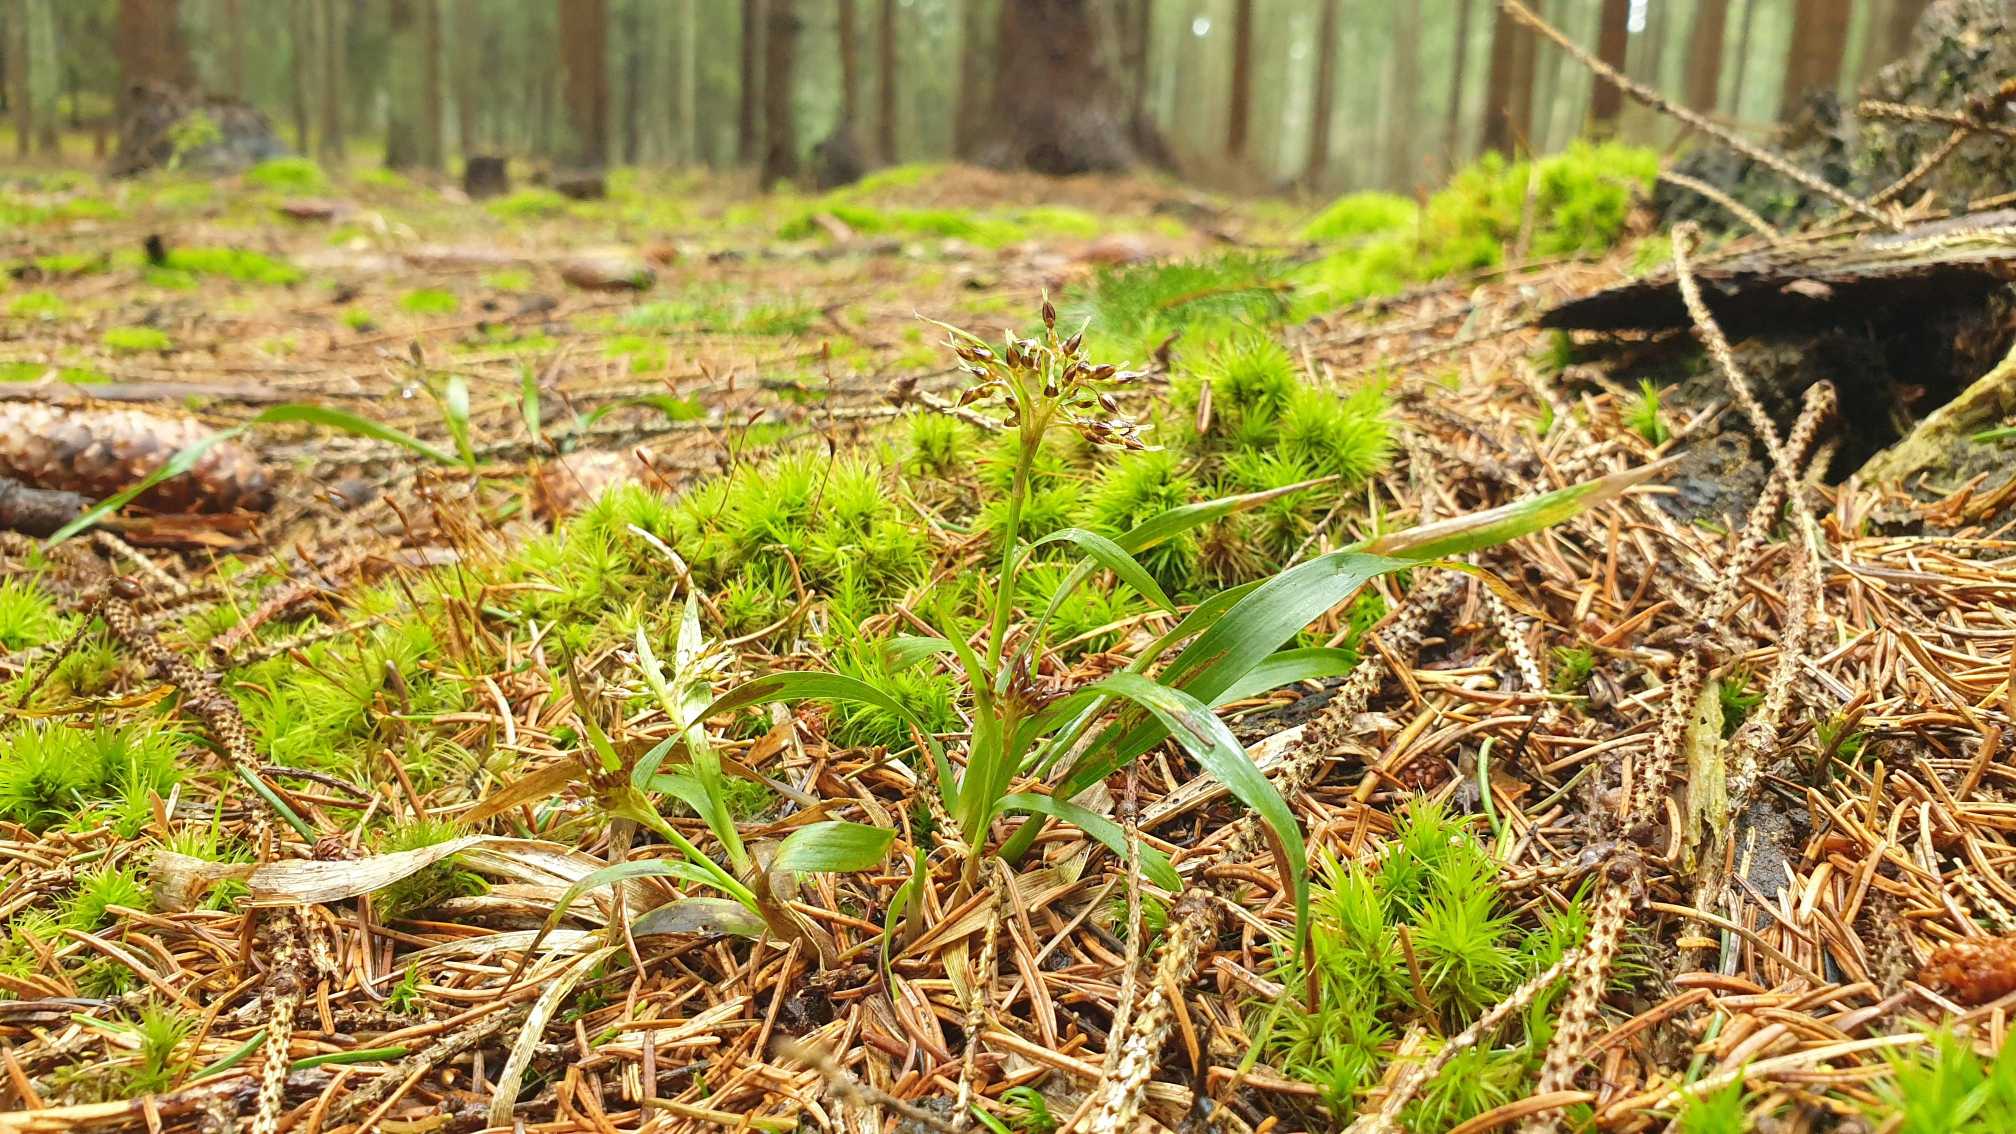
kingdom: Plantae
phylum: Tracheophyta
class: Liliopsida
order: Poales
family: Juncaceae
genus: Luzula
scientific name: Luzula pilosa
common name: Håret frytle
